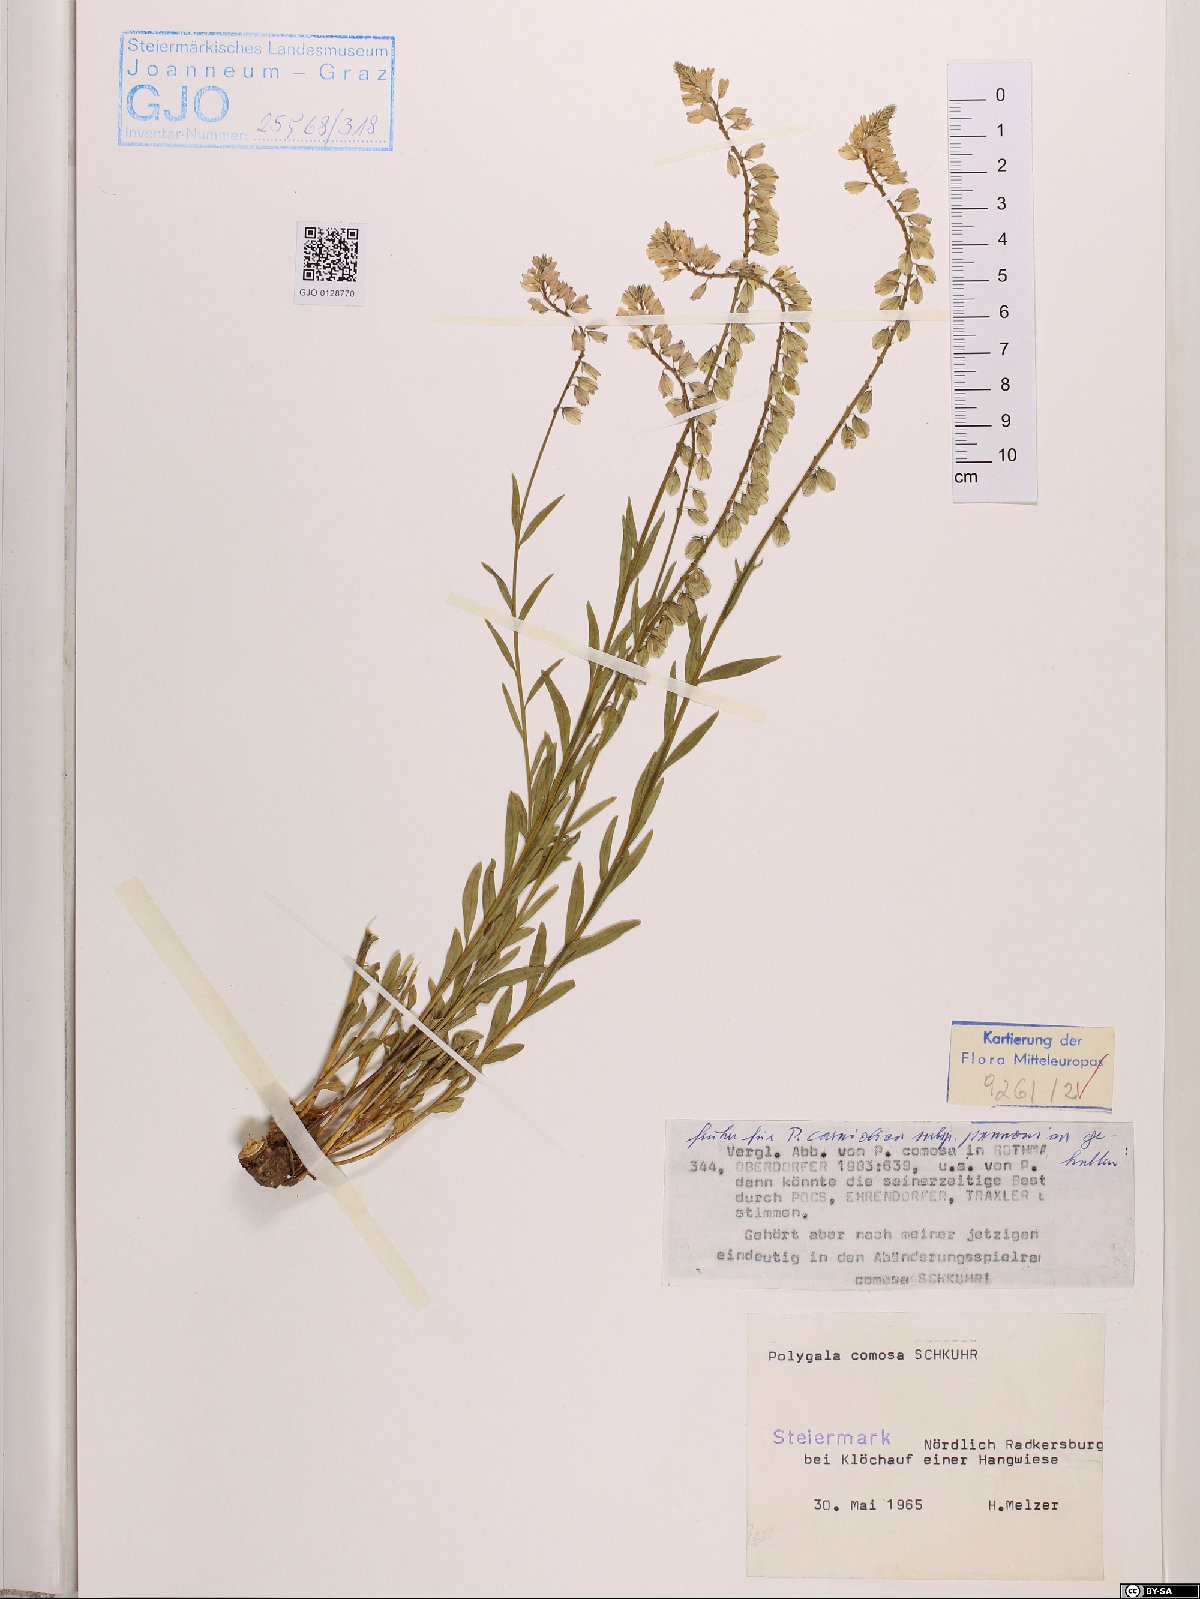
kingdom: Plantae
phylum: Tracheophyta
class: Magnoliopsida
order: Fabales
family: Polygalaceae
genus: Polygala
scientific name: Polygala comosa
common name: Tufted milkwort
